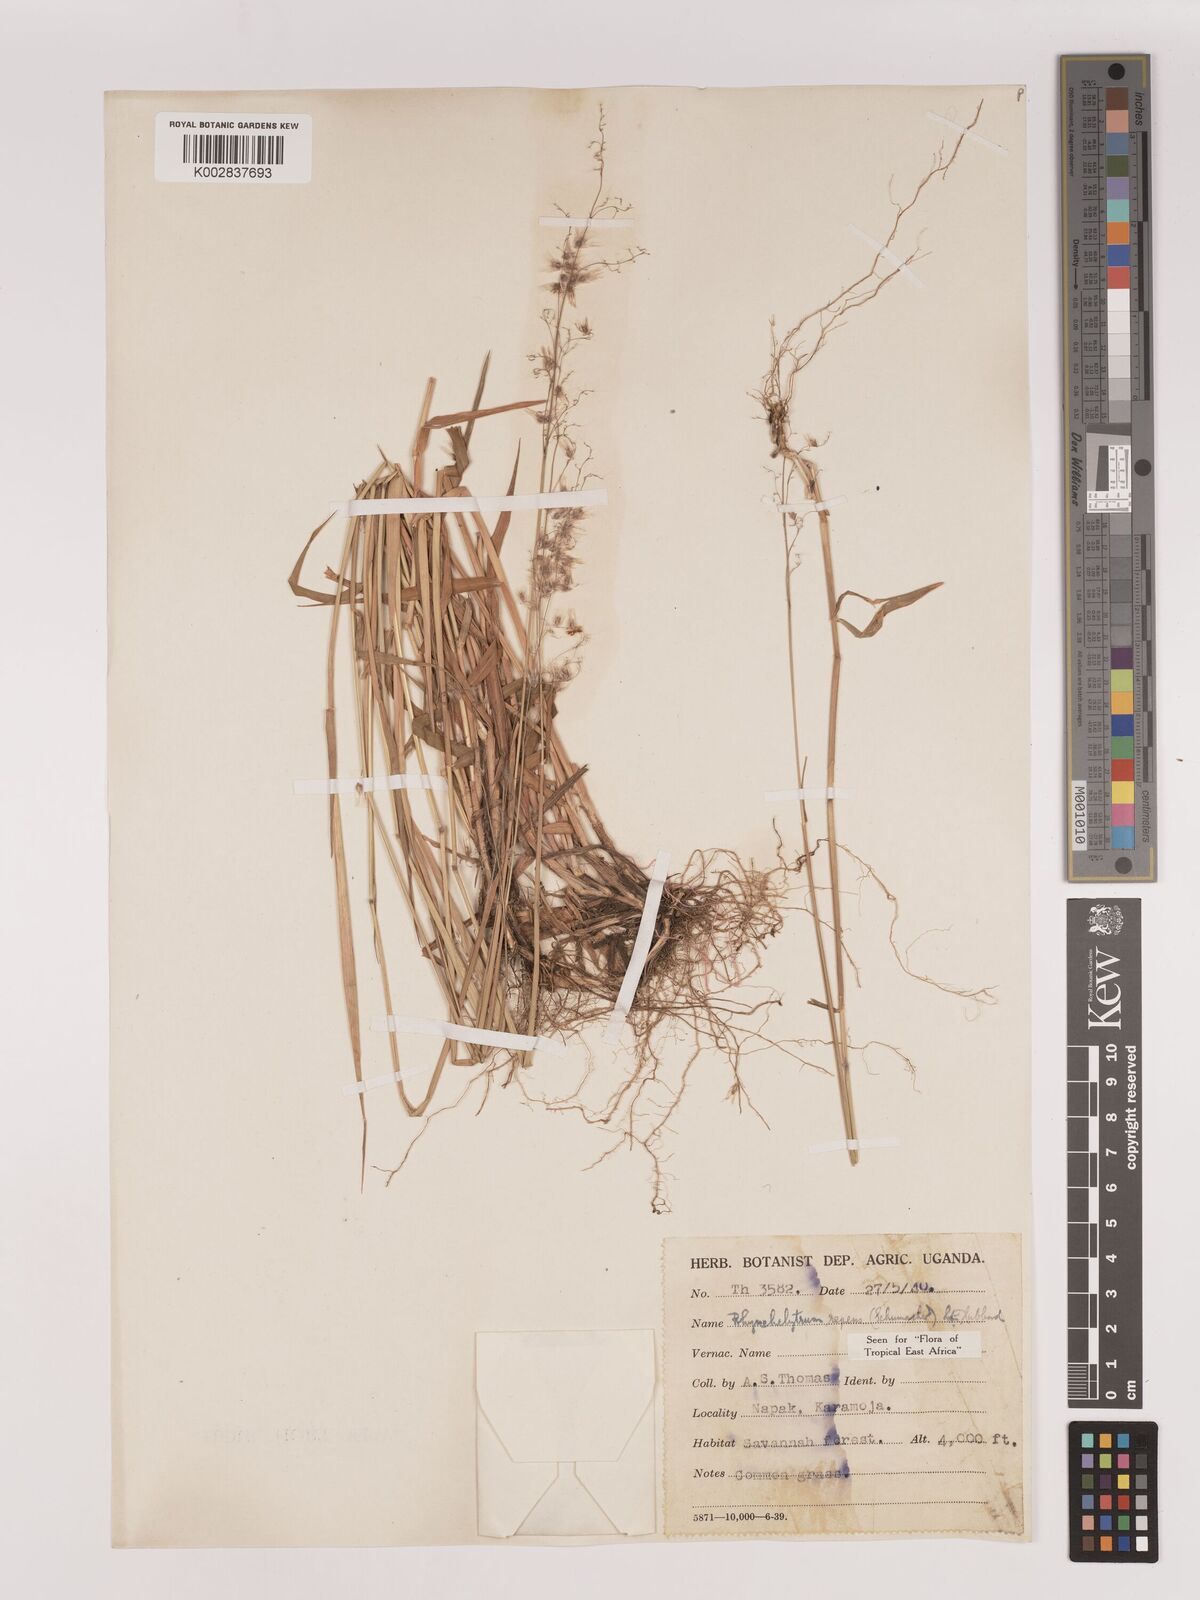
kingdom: Plantae
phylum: Tracheophyta
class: Liliopsida
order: Poales
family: Poaceae
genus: Melinis
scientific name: Melinis repens
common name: Rose natal grass
